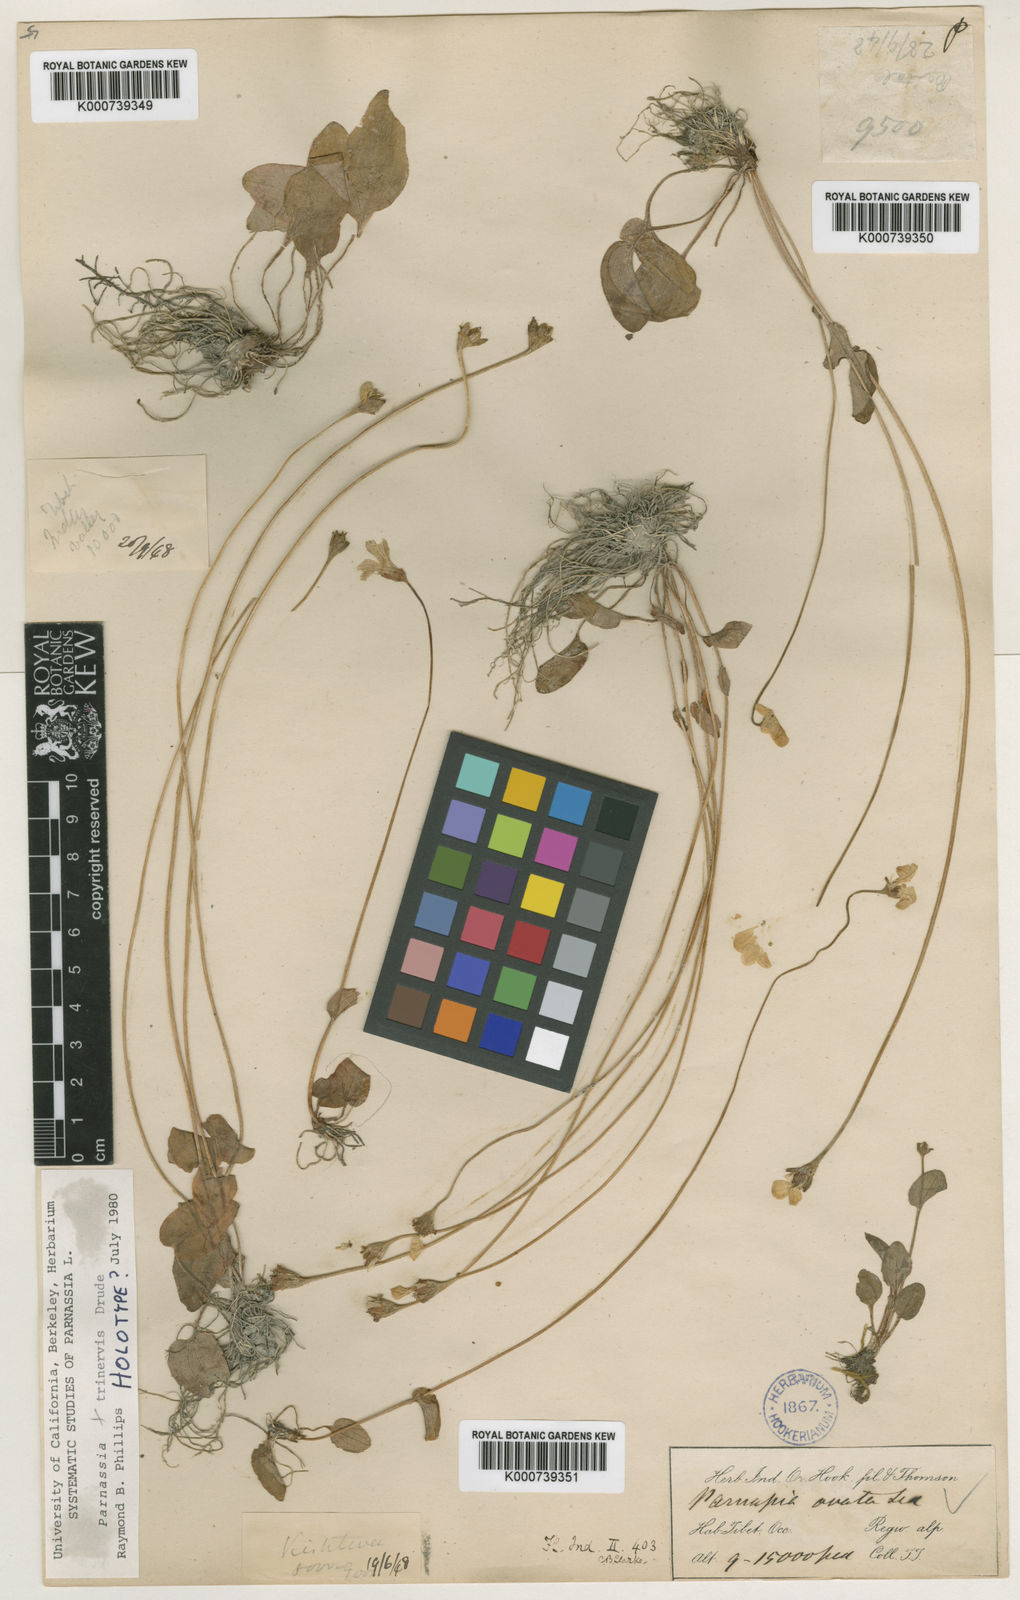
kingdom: Plantae
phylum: Tracheophyta
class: Magnoliopsida
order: Celastrales
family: Parnassiaceae
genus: Parnassia
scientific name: Parnassia trinervis
